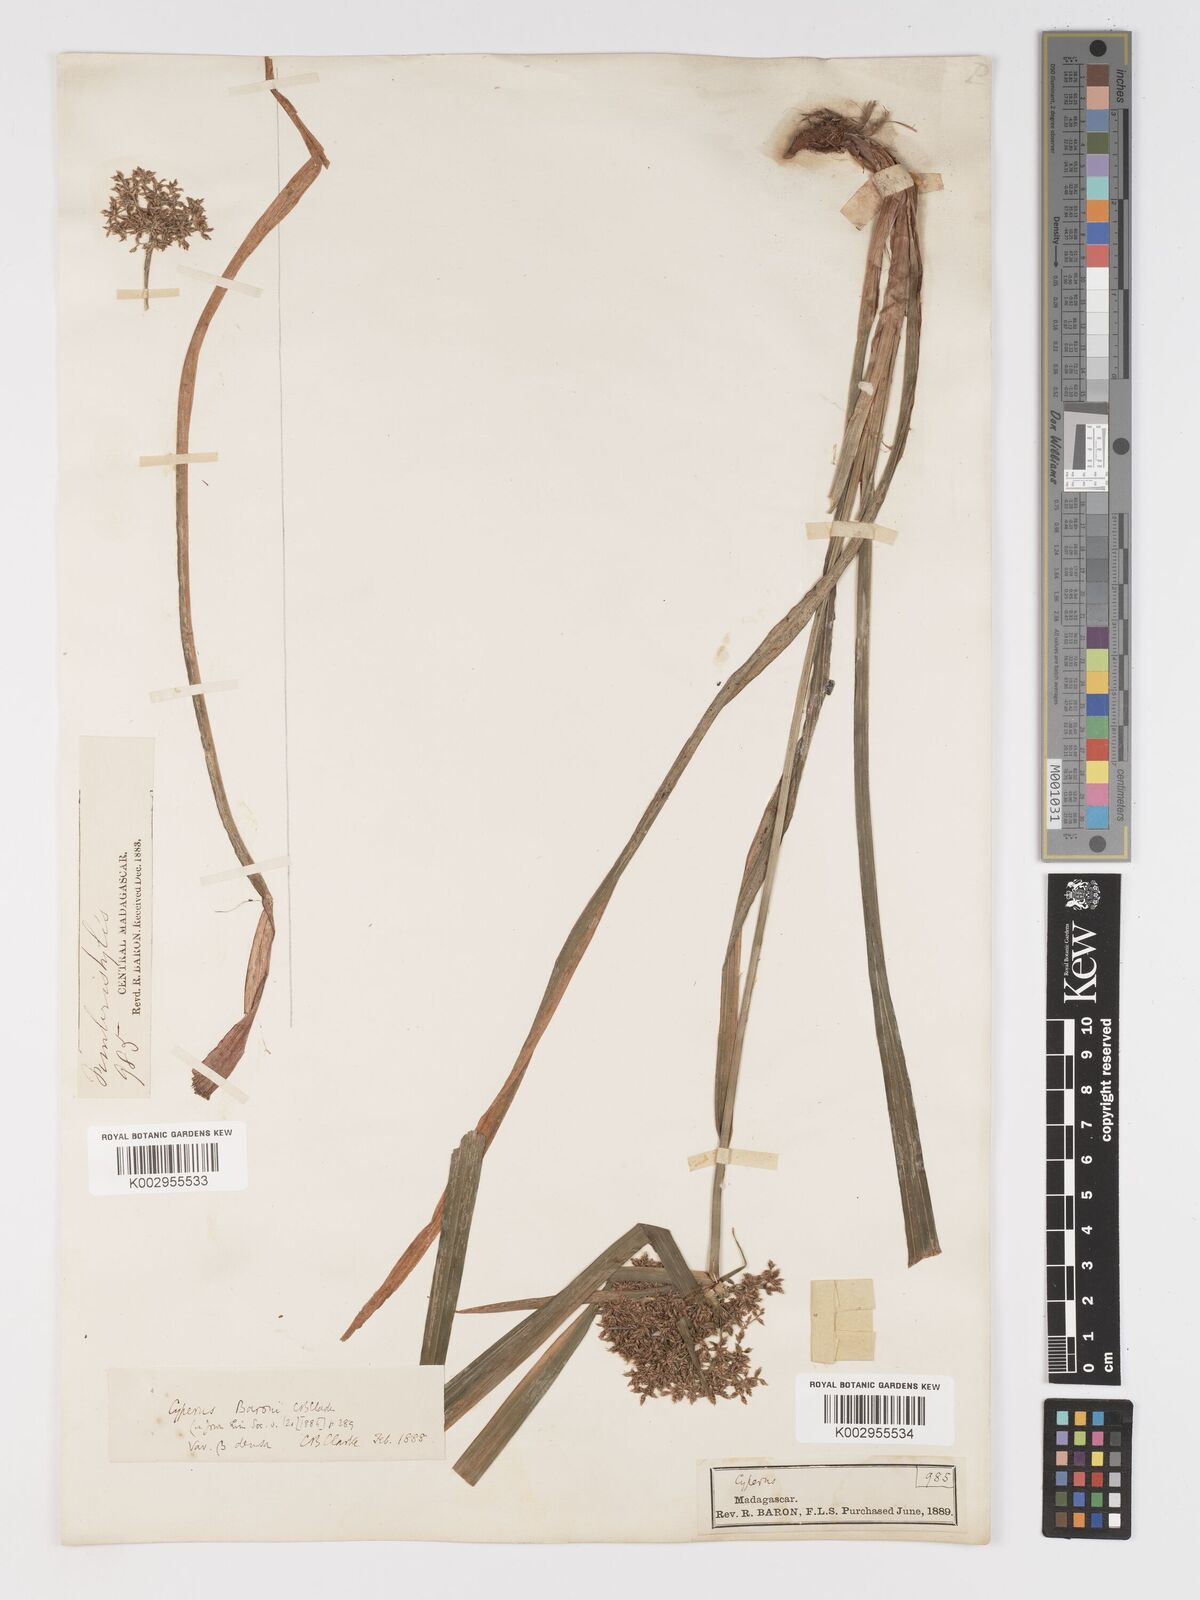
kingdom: Plantae
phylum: Tracheophyta
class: Liliopsida
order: Poales
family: Cyperaceae
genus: Cyperus
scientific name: Cyperus baronii
